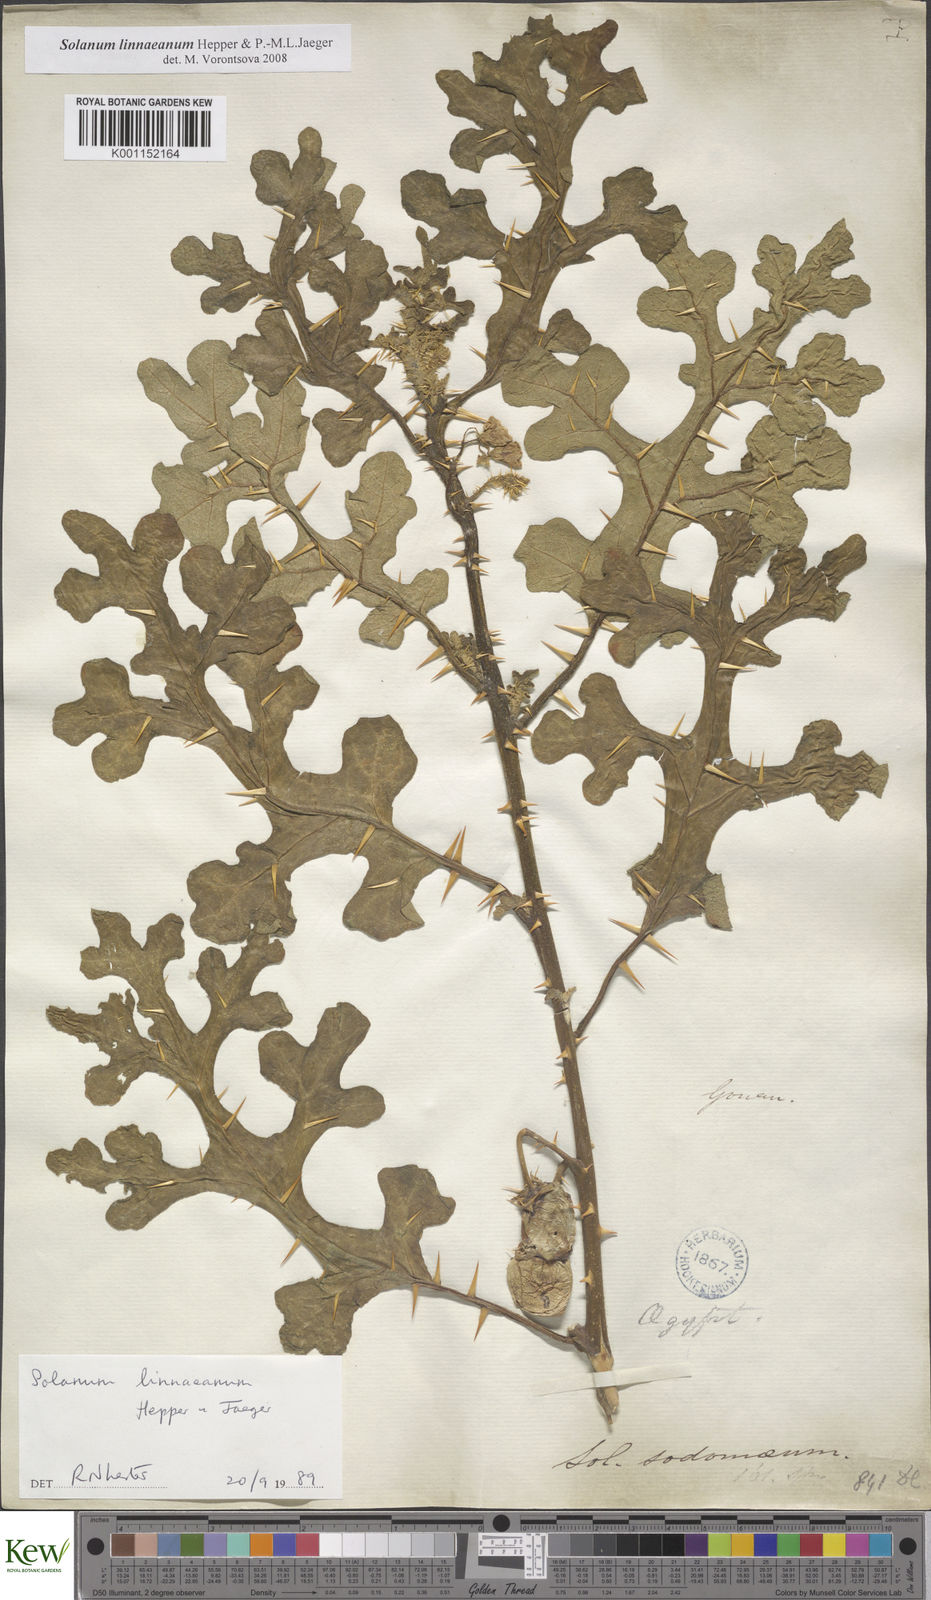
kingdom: Plantae
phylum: Tracheophyta
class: Magnoliopsida
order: Solanales
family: Solanaceae
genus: Solanum
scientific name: Solanum linnaeanum
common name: Nightshade
